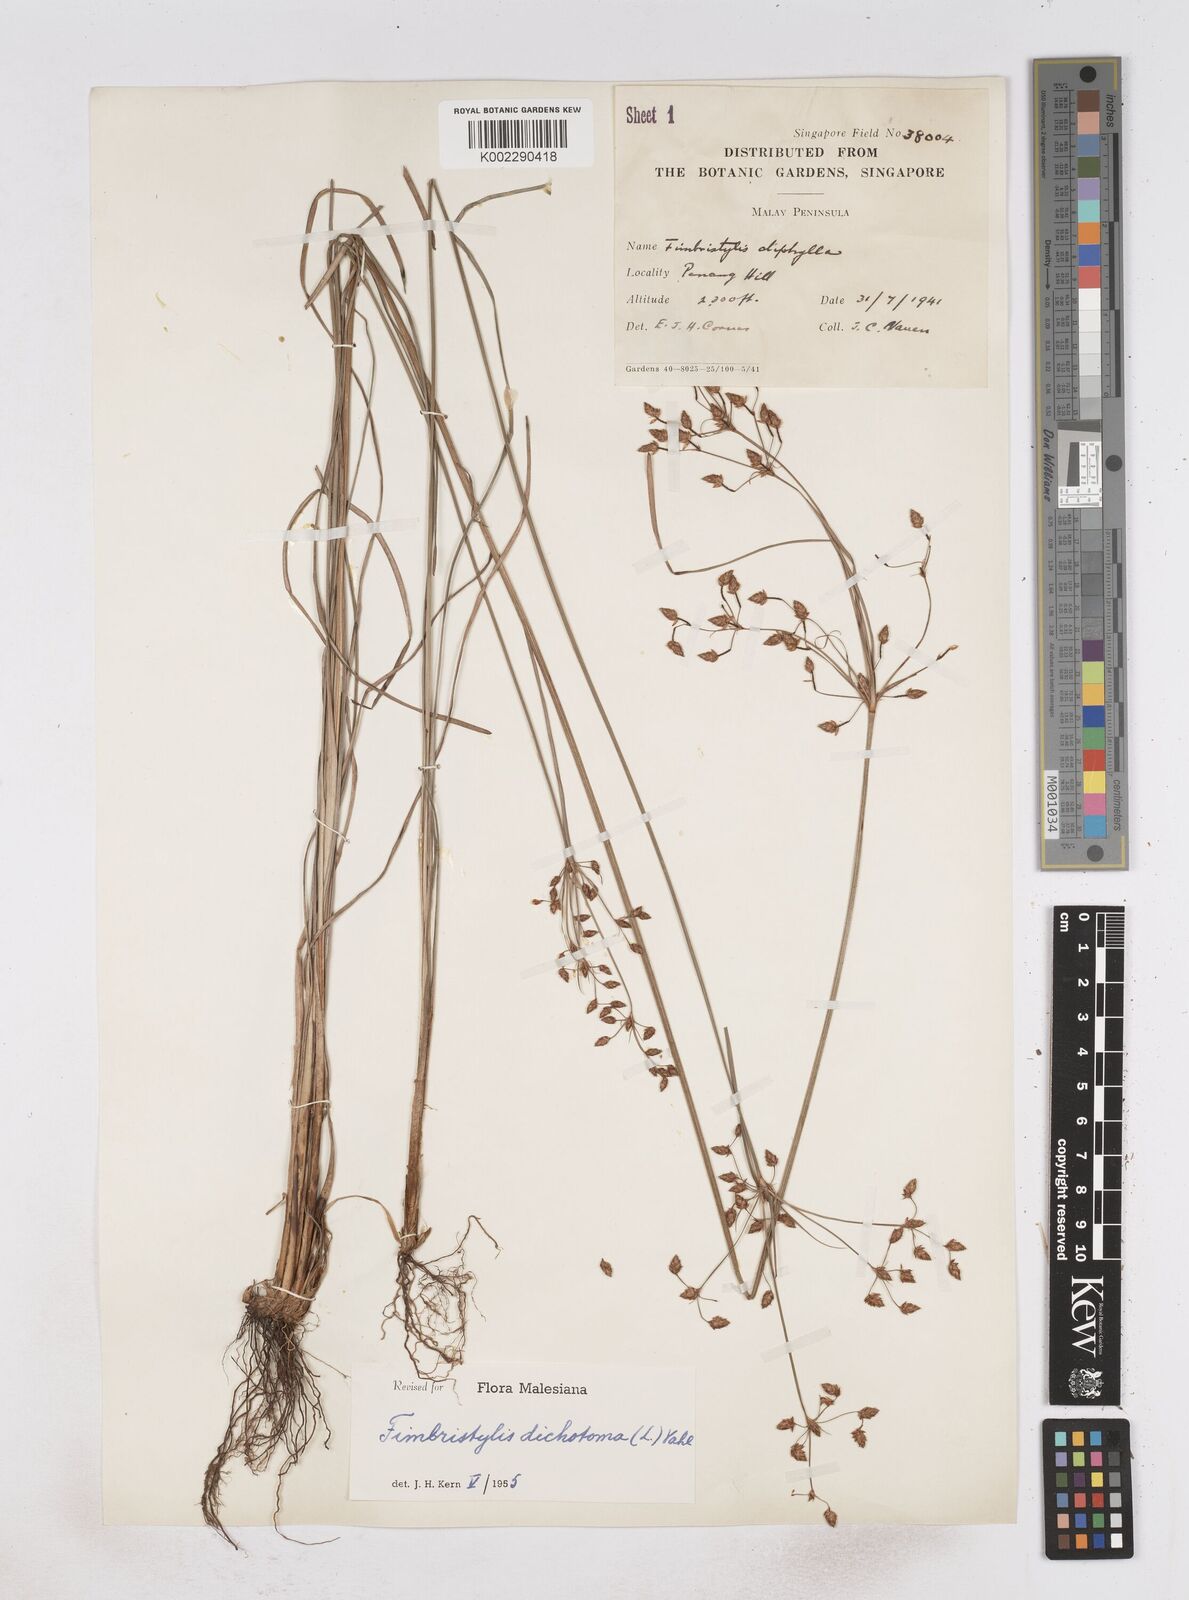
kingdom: Plantae
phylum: Tracheophyta
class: Liliopsida
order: Poales
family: Cyperaceae
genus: Fimbristylis
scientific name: Fimbristylis dichotoma
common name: Forked fimbry
